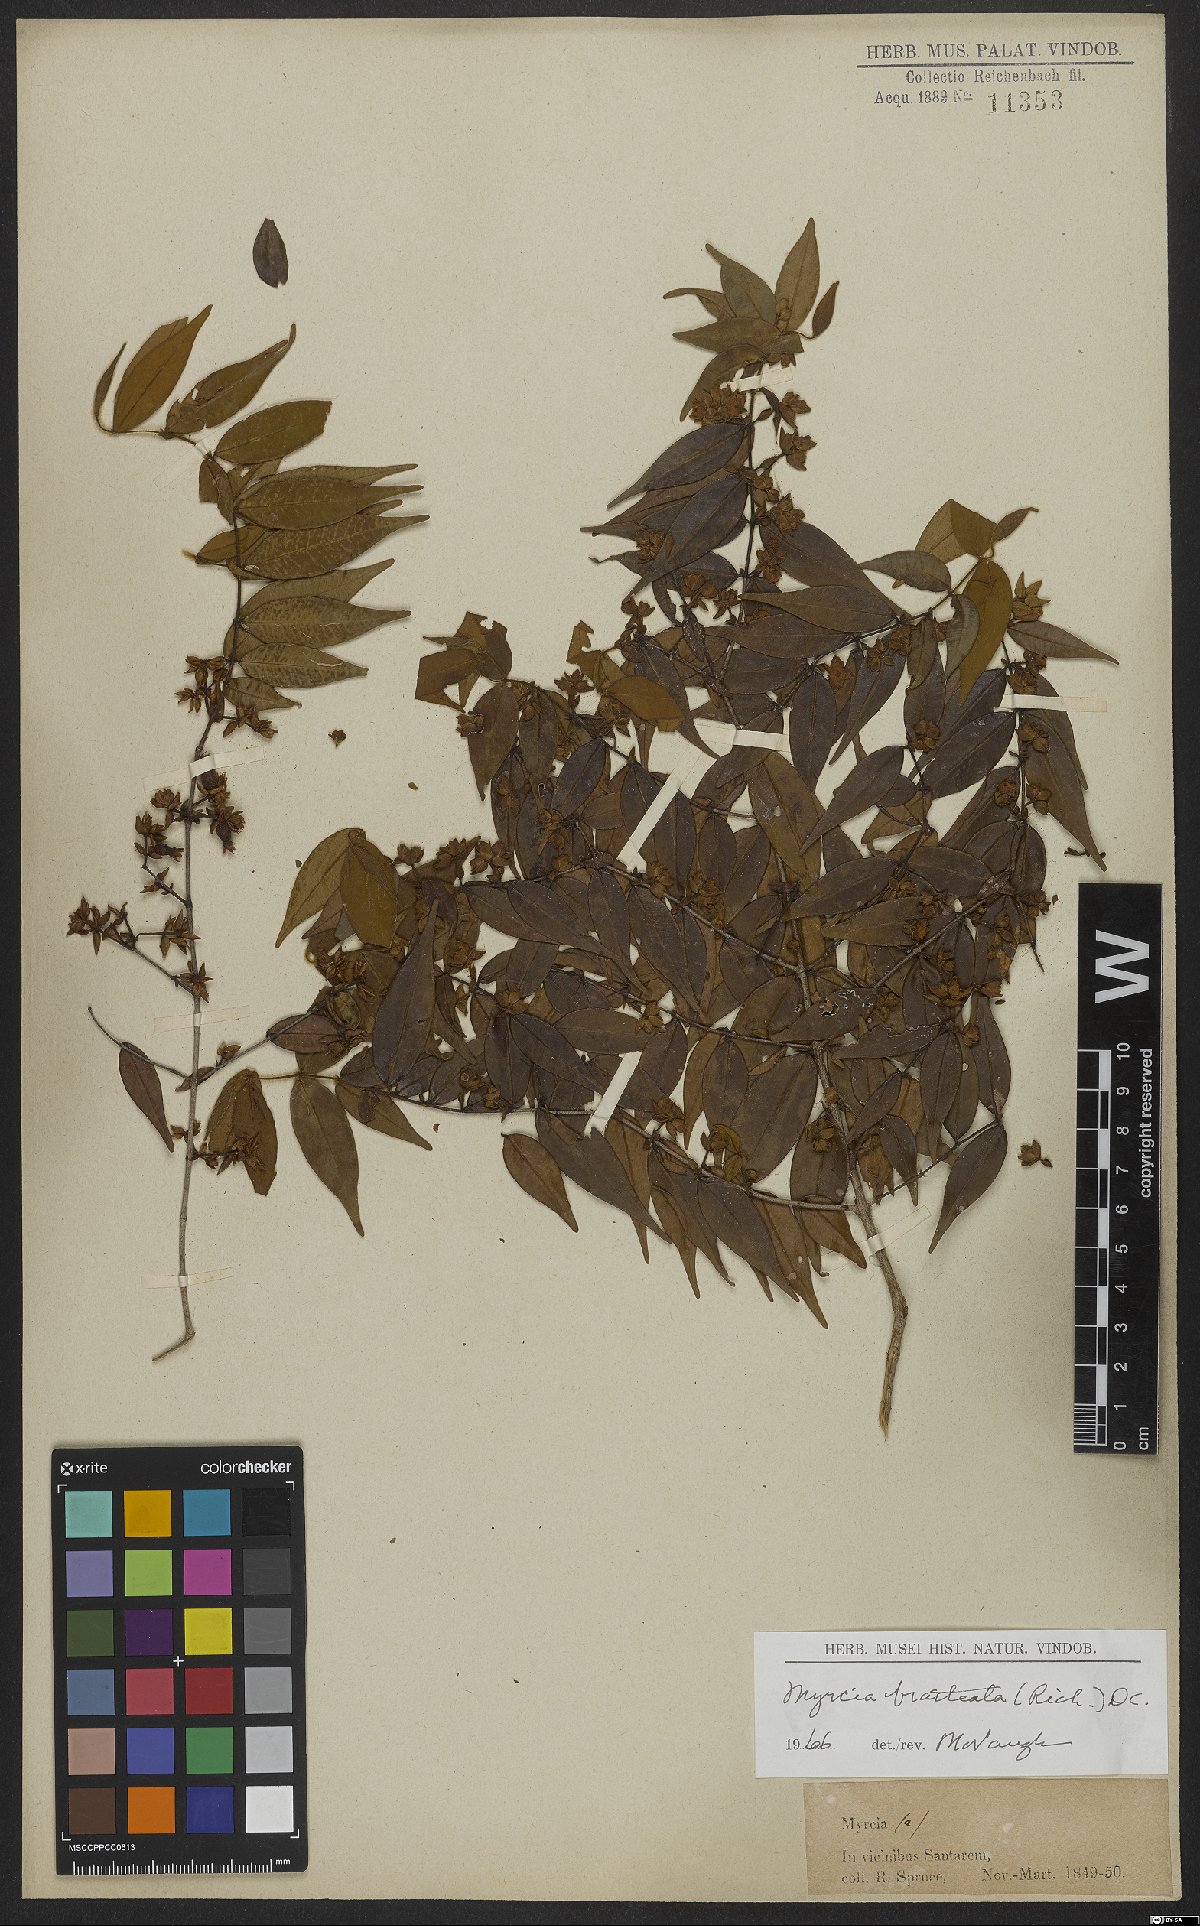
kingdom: Plantae
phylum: Tracheophyta
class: Magnoliopsida
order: Myrtales
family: Myrtaceae
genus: Myrcia
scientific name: Myrcia bracteata
